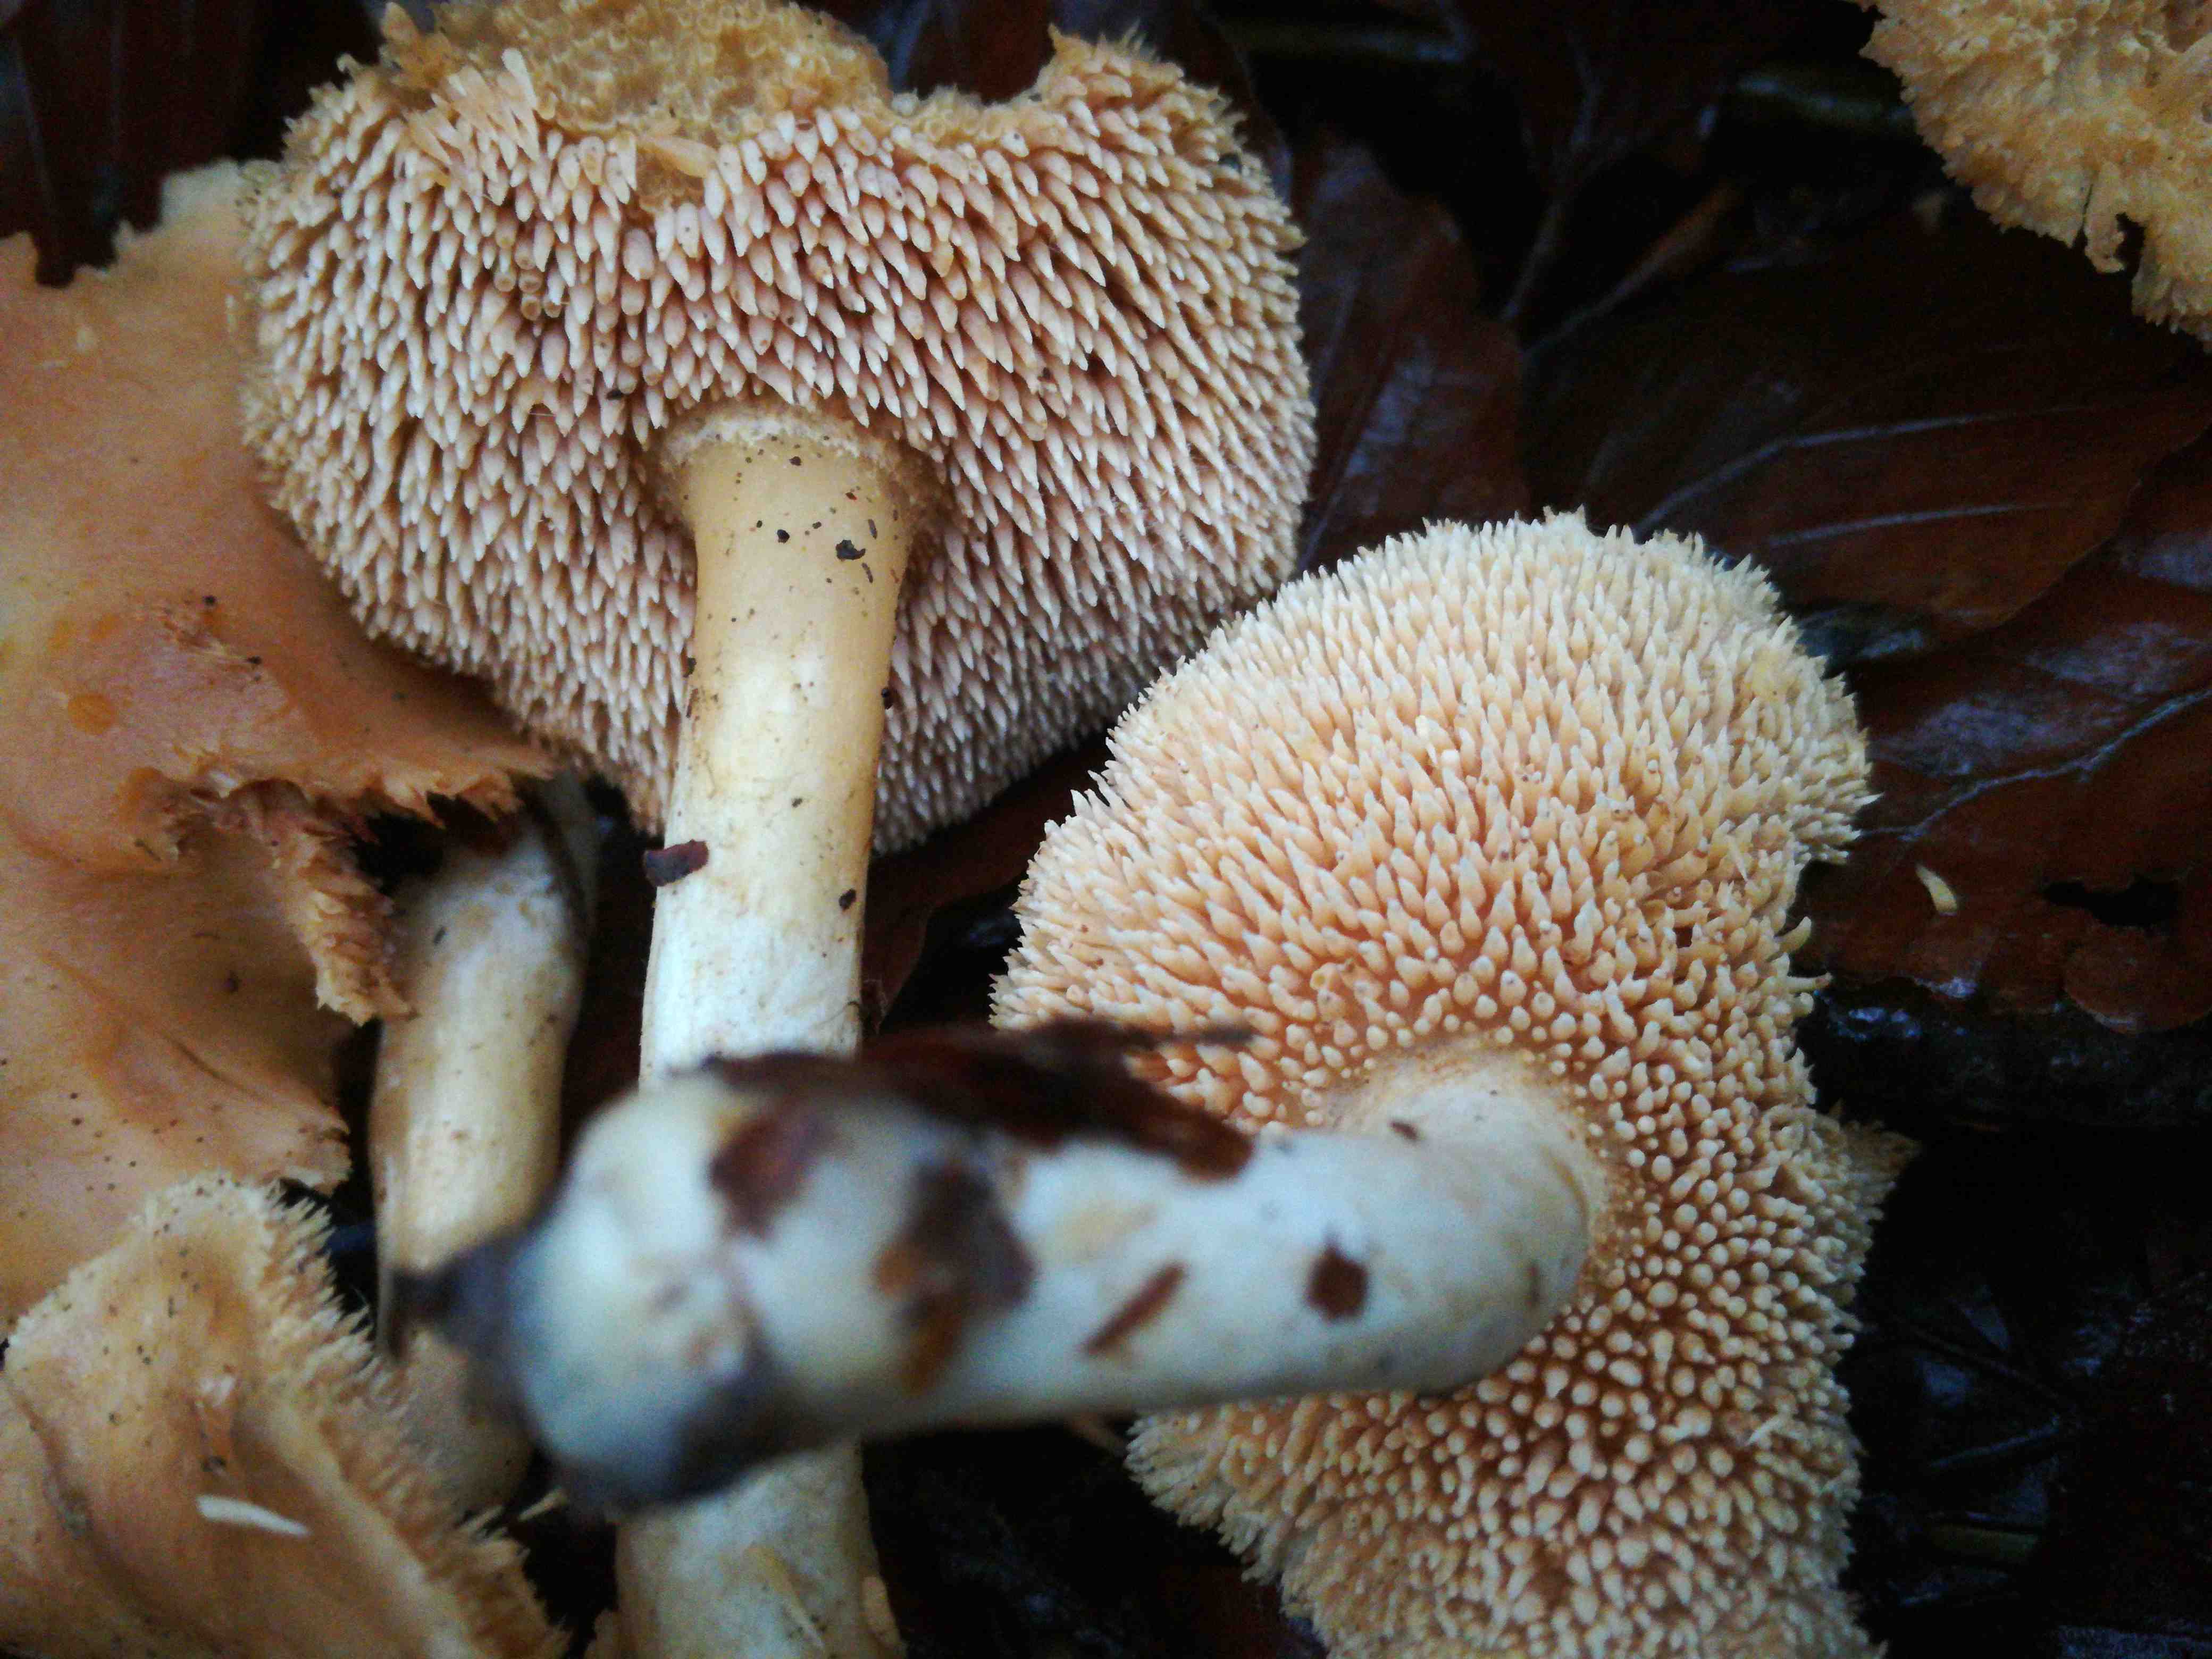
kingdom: Fungi
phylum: Basidiomycota
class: Agaricomycetes
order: Cantharellales
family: Hydnaceae
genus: Hydnum
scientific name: Hydnum
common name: pigsvamp
